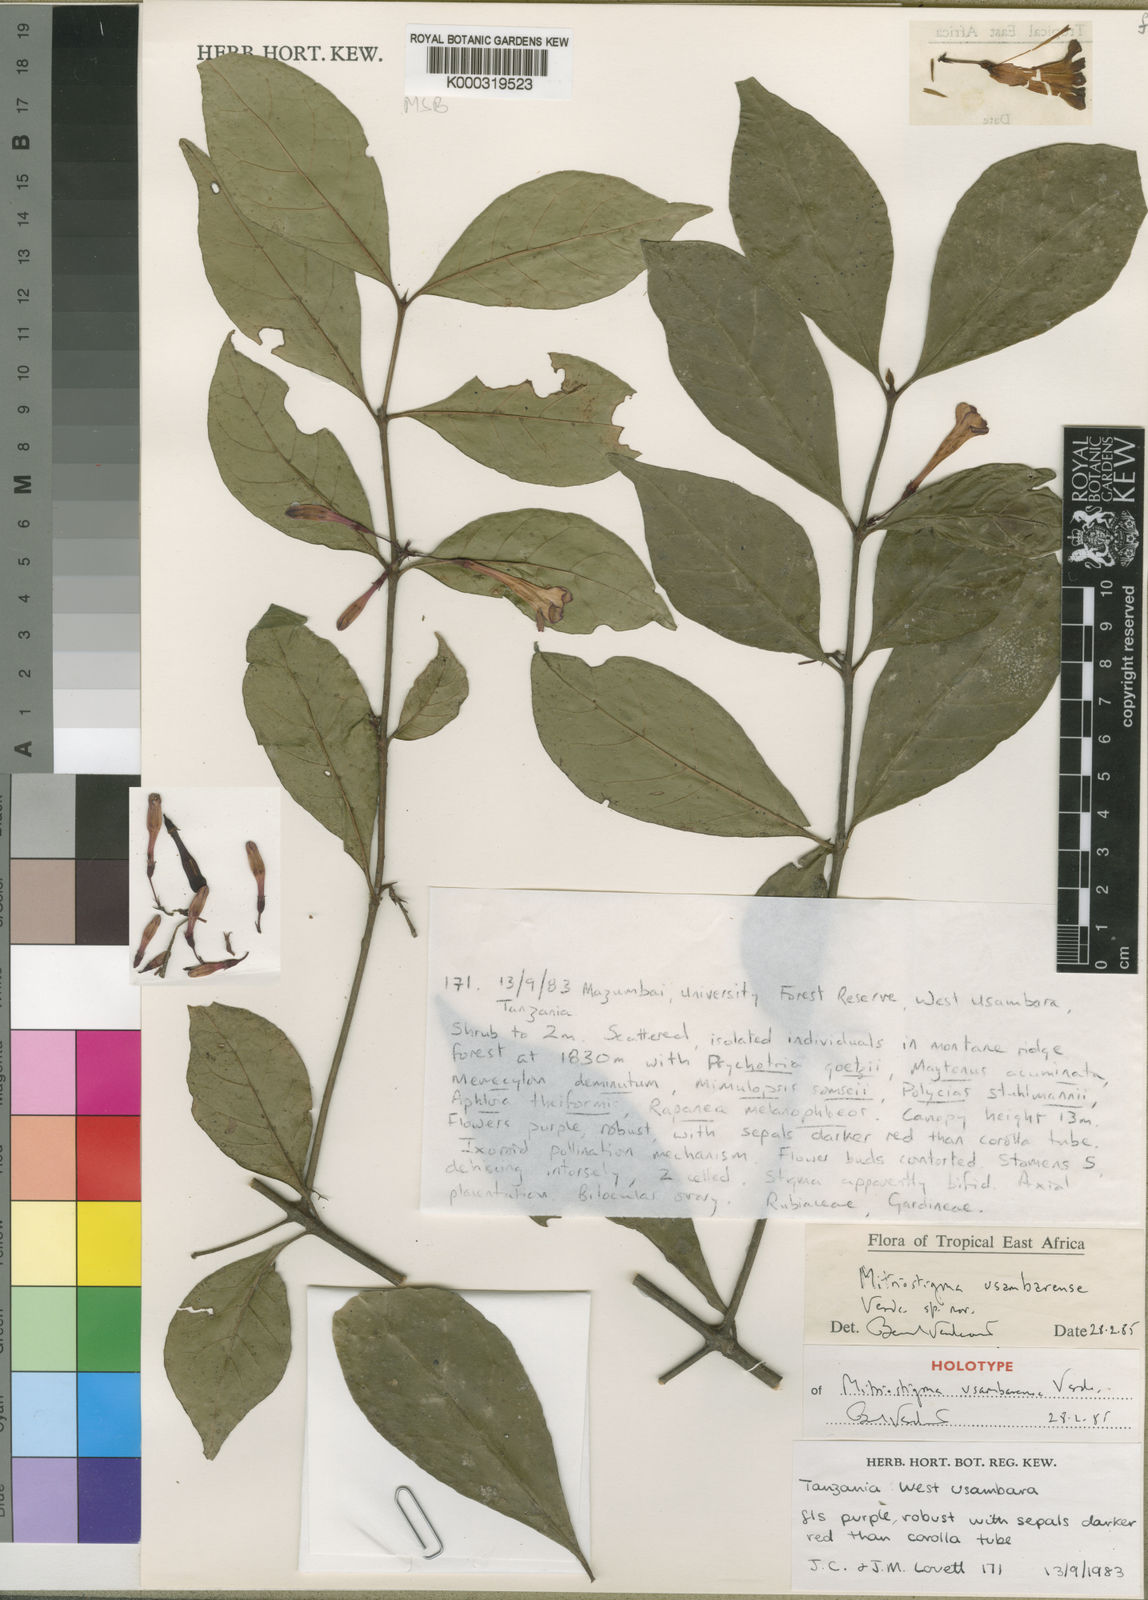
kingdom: Plantae
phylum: Tracheophyta
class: Magnoliopsida
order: Gentianales
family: Rubiaceae
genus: Mitriostigma
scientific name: Mitriostigma usambarense
